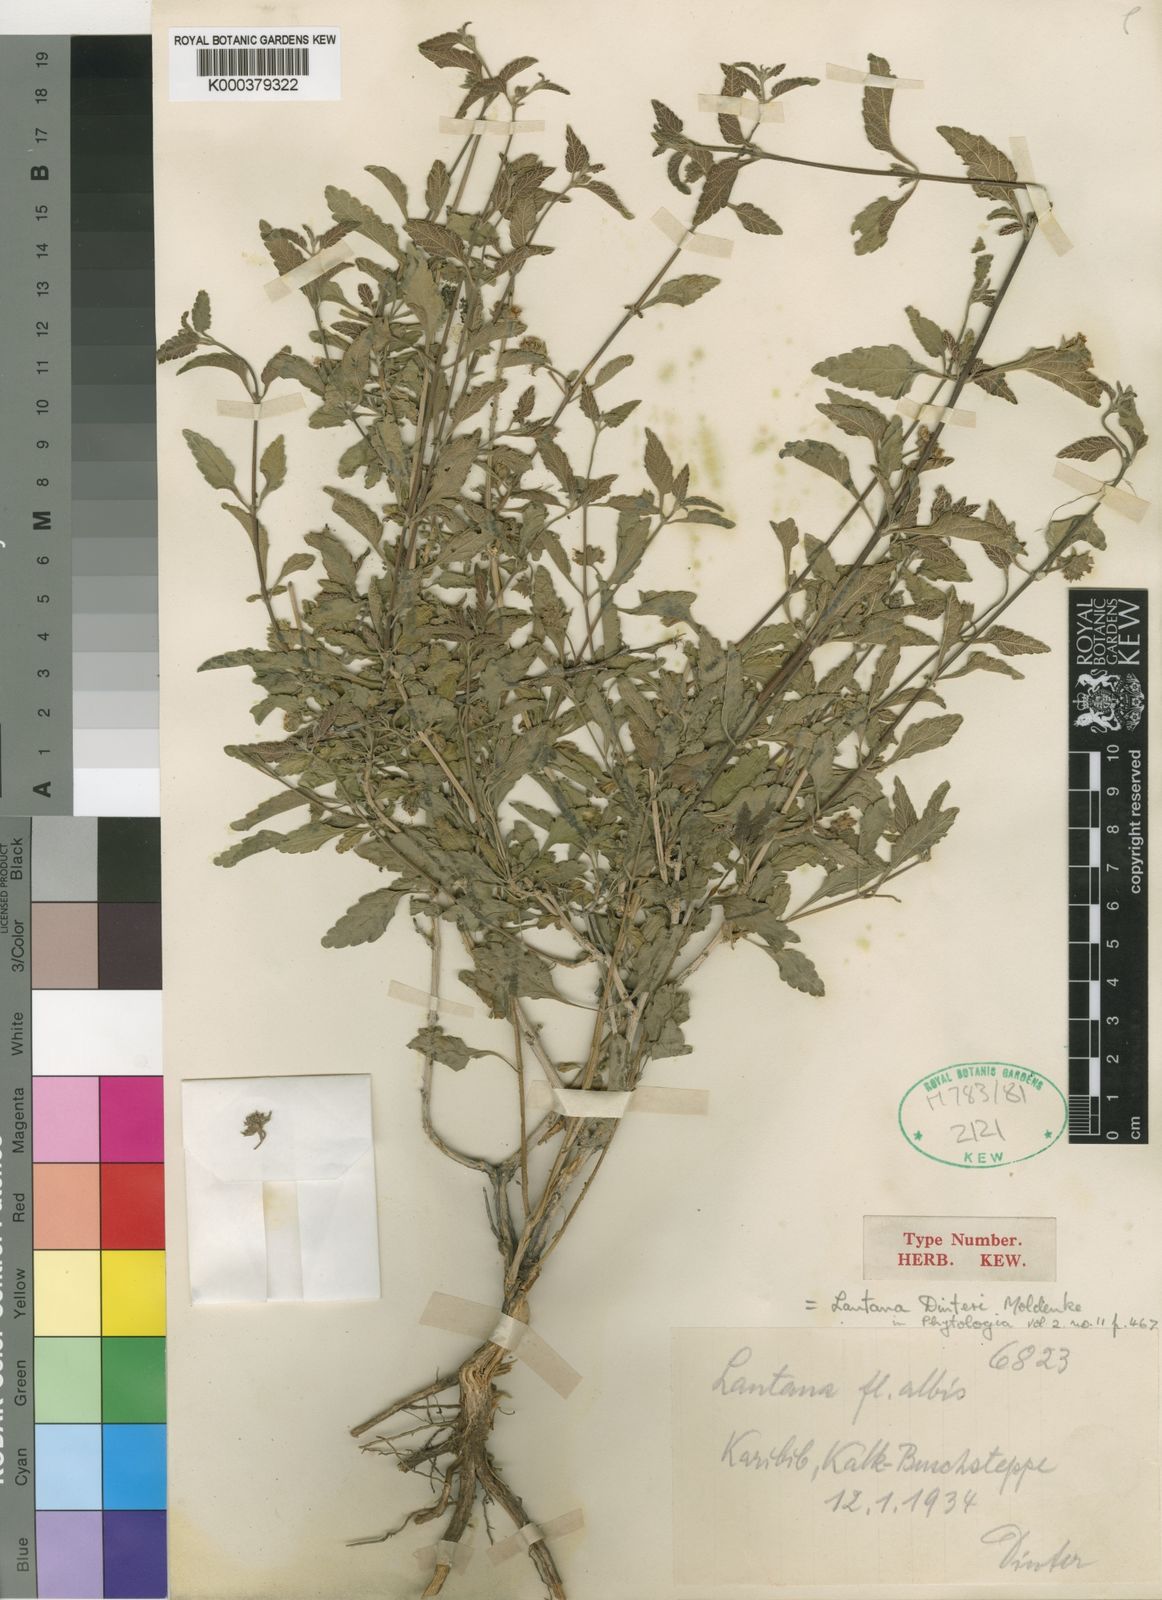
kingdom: Plantae
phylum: Tracheophyta
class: Magnoliopsida
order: Lamiales
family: Verbenaceae
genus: Lantana
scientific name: Lantana dinteri
